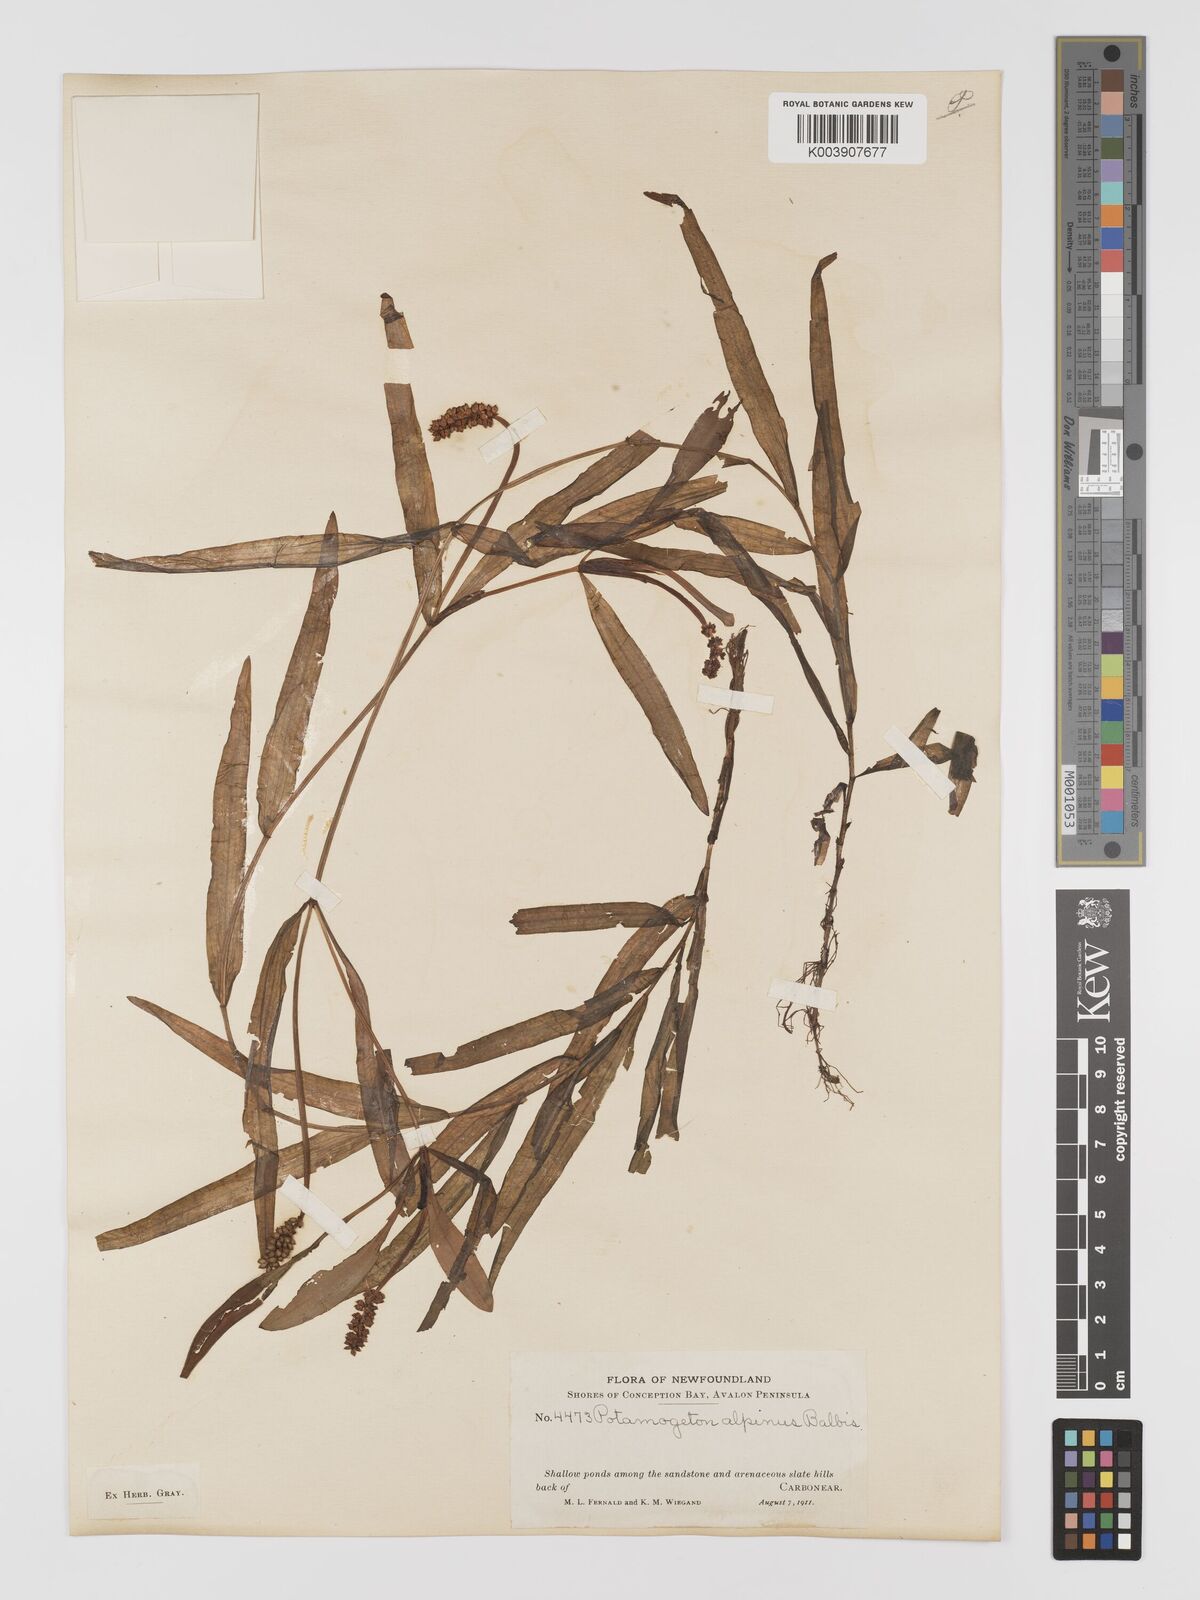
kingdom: Plantae
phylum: Tracheophyta
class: Liliopsida
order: Alismatales
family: Potamogetonaceae
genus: Potamogeton
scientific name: Potamogeton alpinus
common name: Red pondweed
